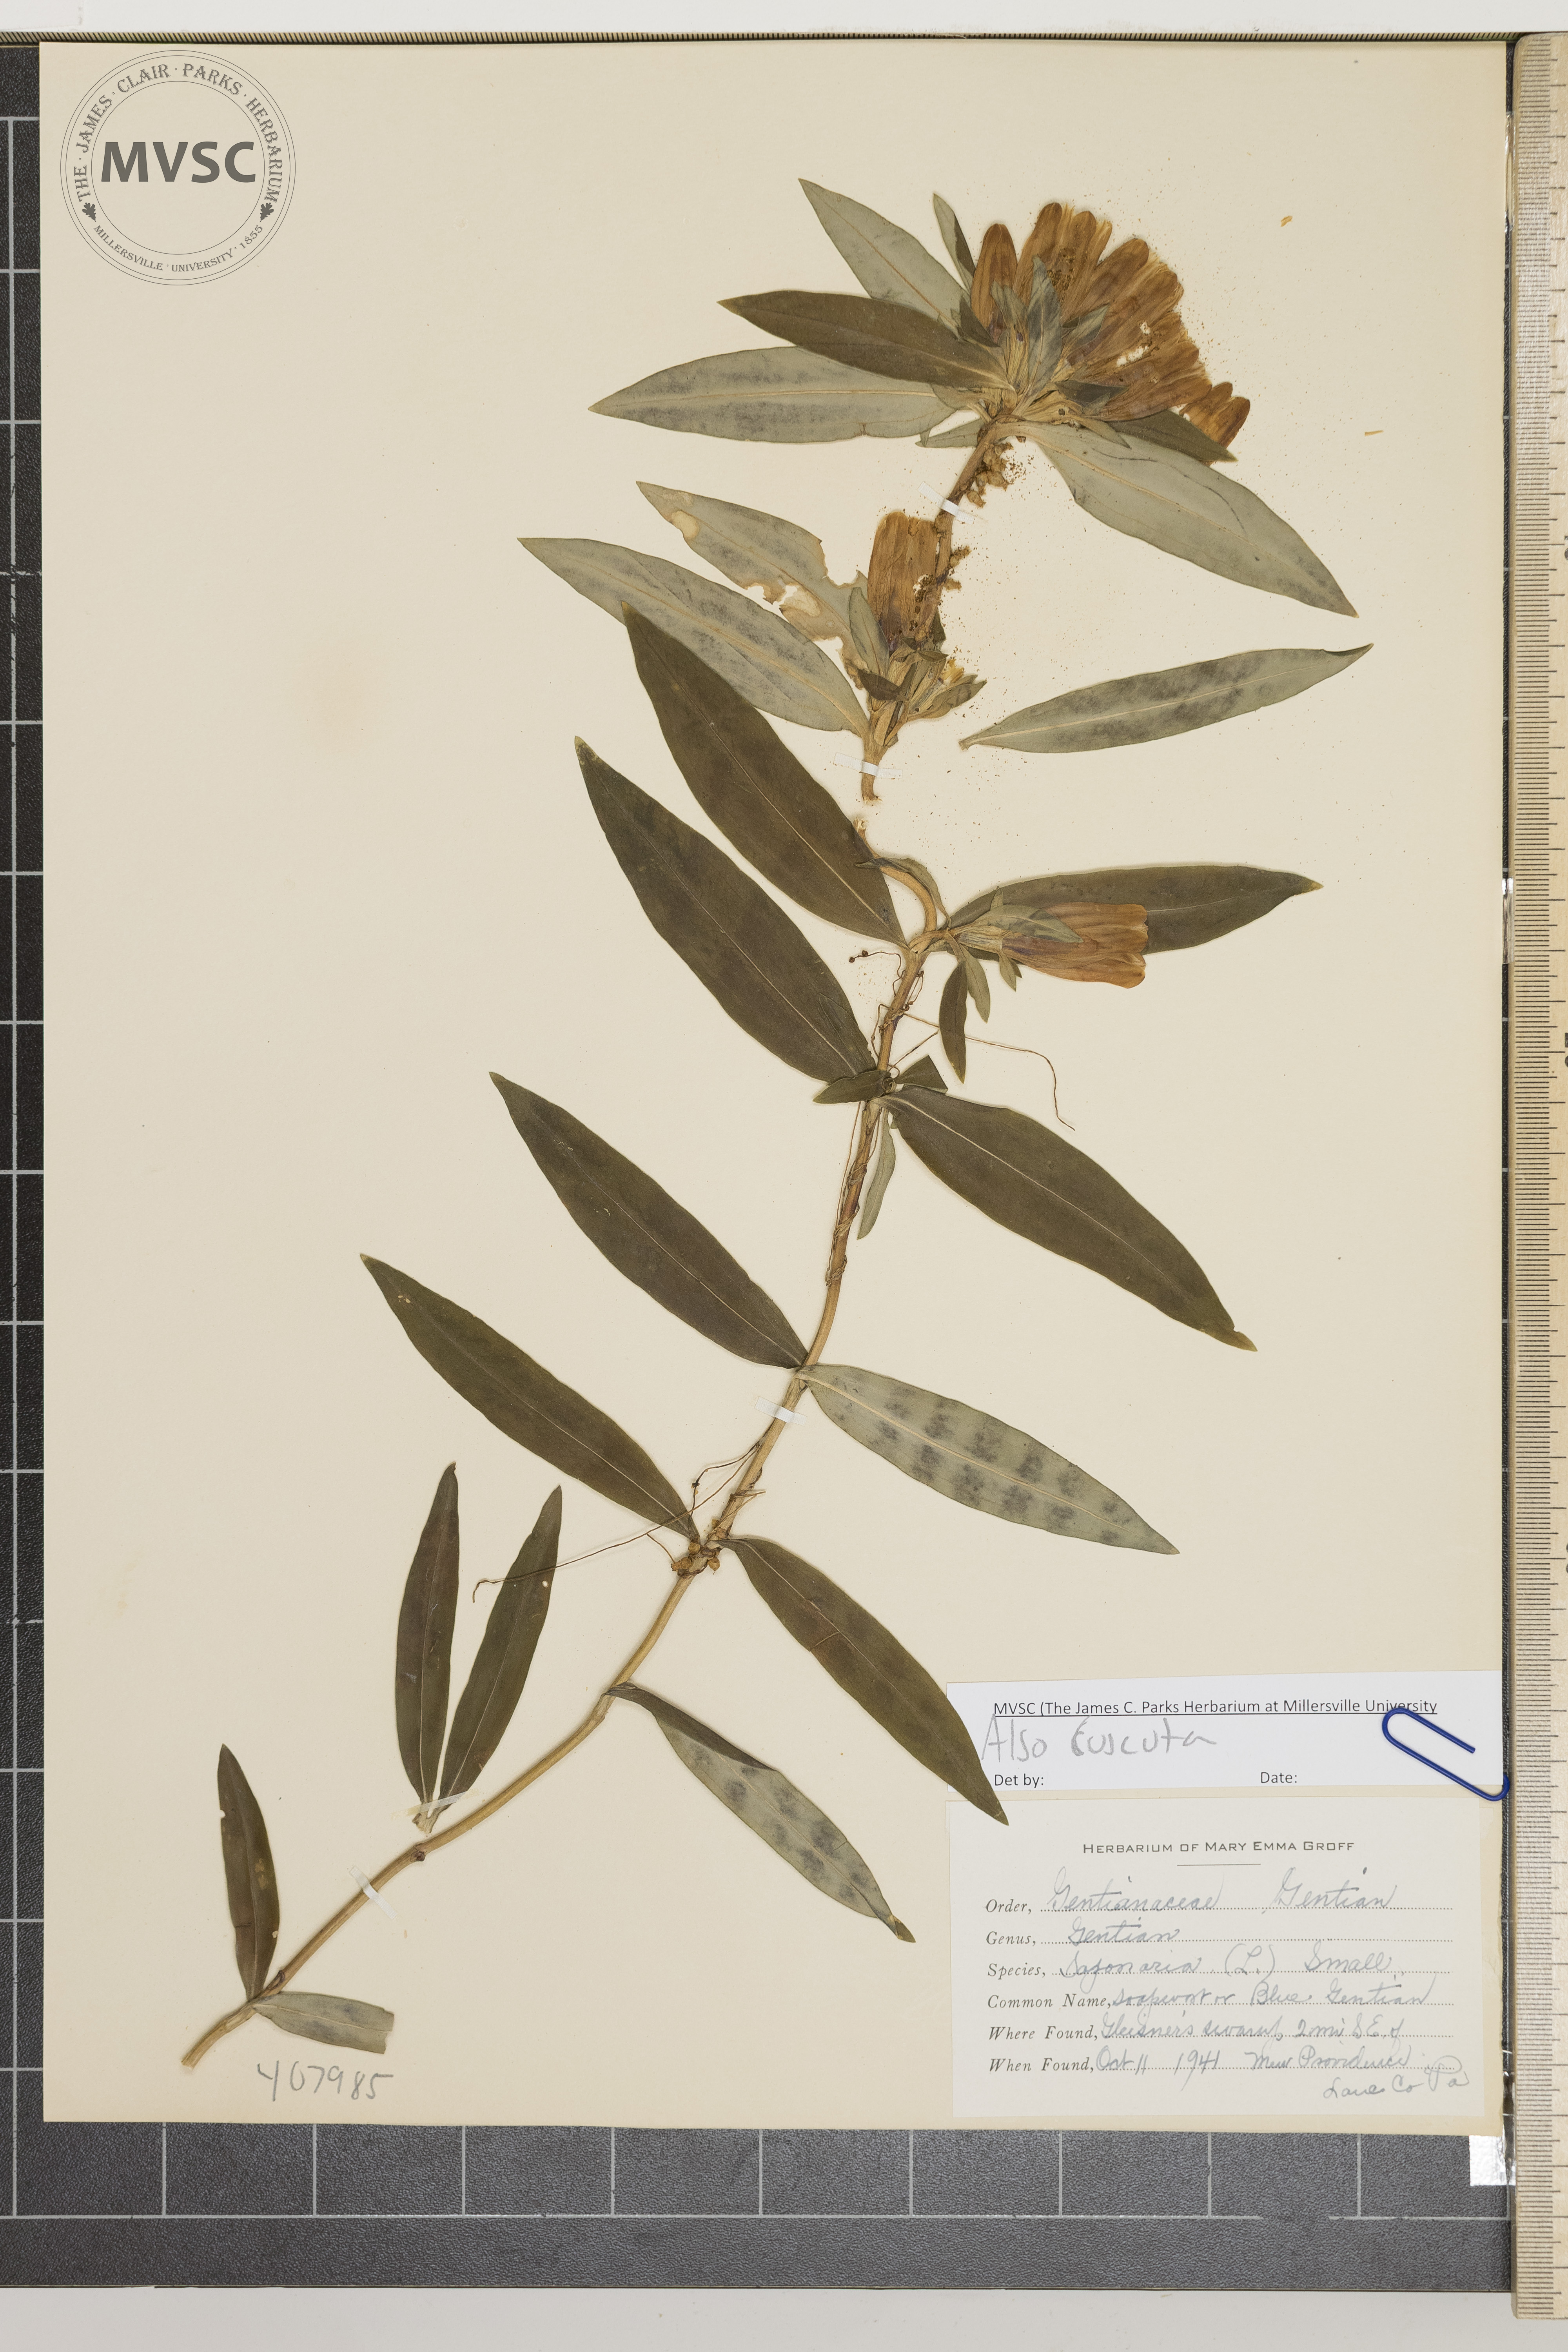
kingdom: Plantae
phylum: Tracheophyta
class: Magnoliopsida
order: Gentianales
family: Gentianaceae
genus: Gentiana
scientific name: Gentiana saponaria
